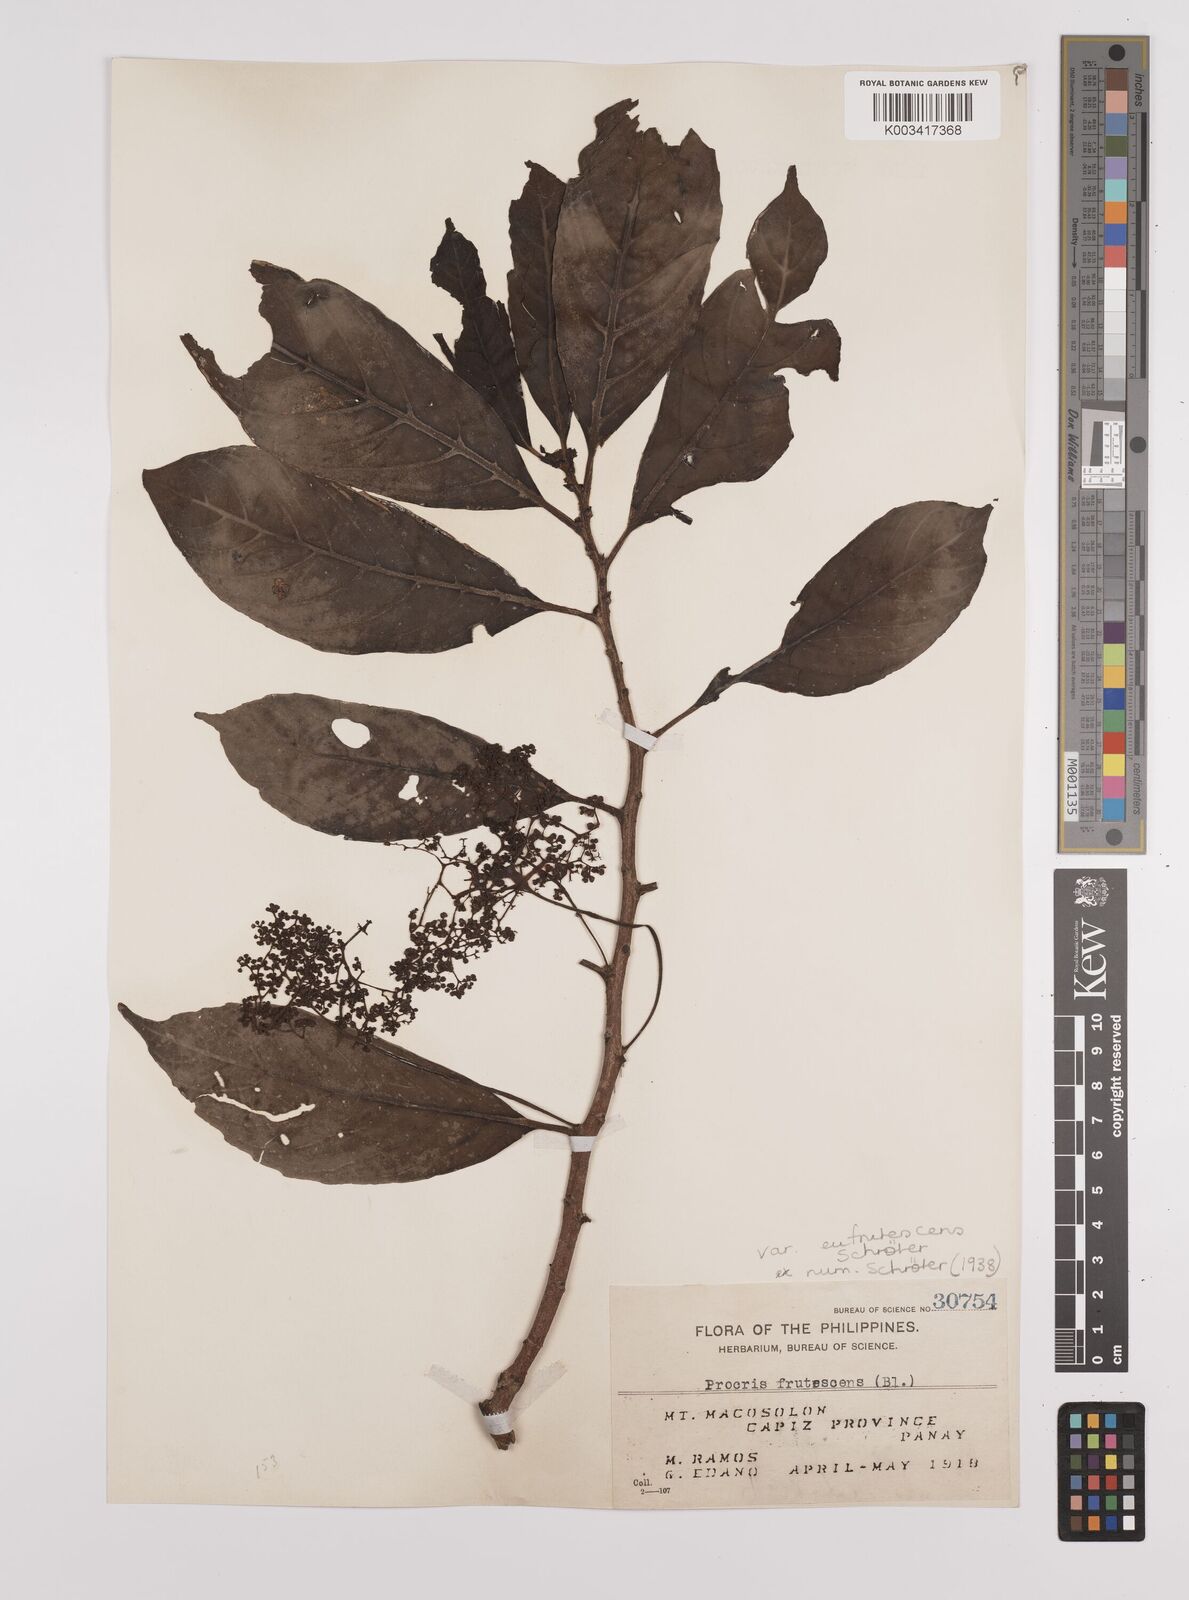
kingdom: Plantae
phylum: Tracheophyta
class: Magnoliopsida
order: Rosales
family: Urticaceae
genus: Procris
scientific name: Procris frutescens
